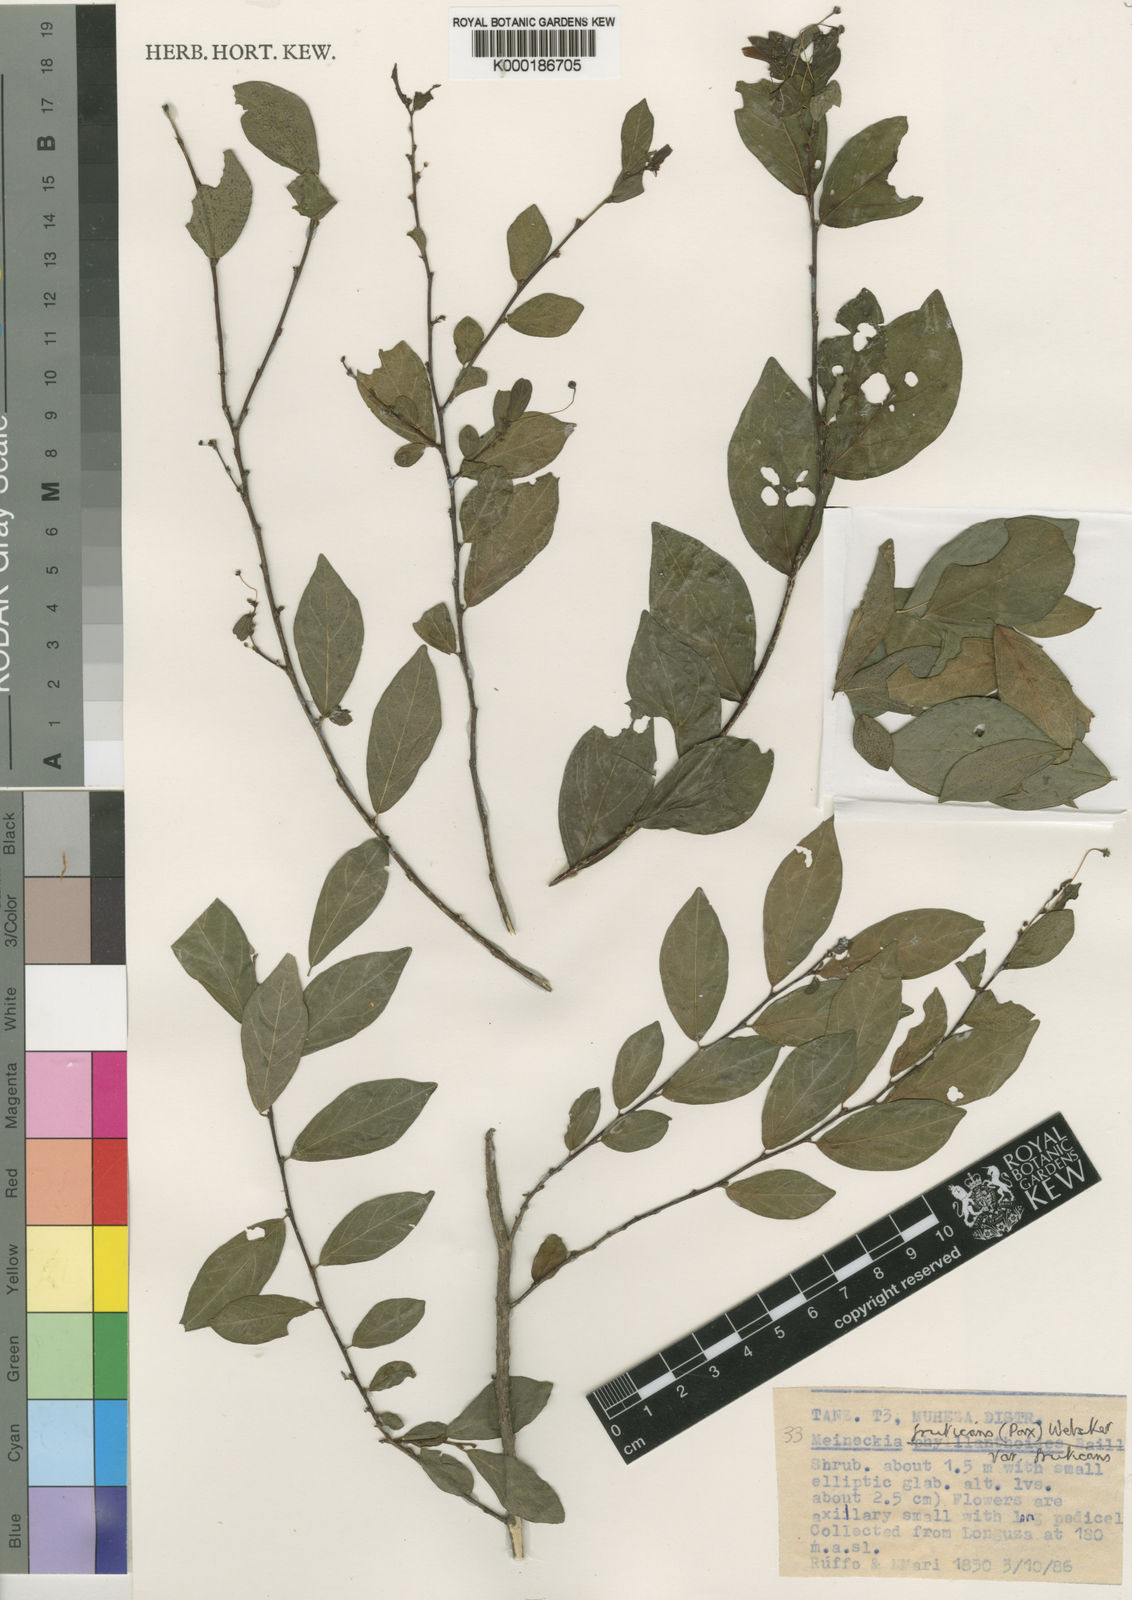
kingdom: Plantae
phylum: Tracheophyta
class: Magnoliopsida
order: Malpighiales
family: Phyllanthaceae
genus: Meineckia
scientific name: Meineckia fruticans
